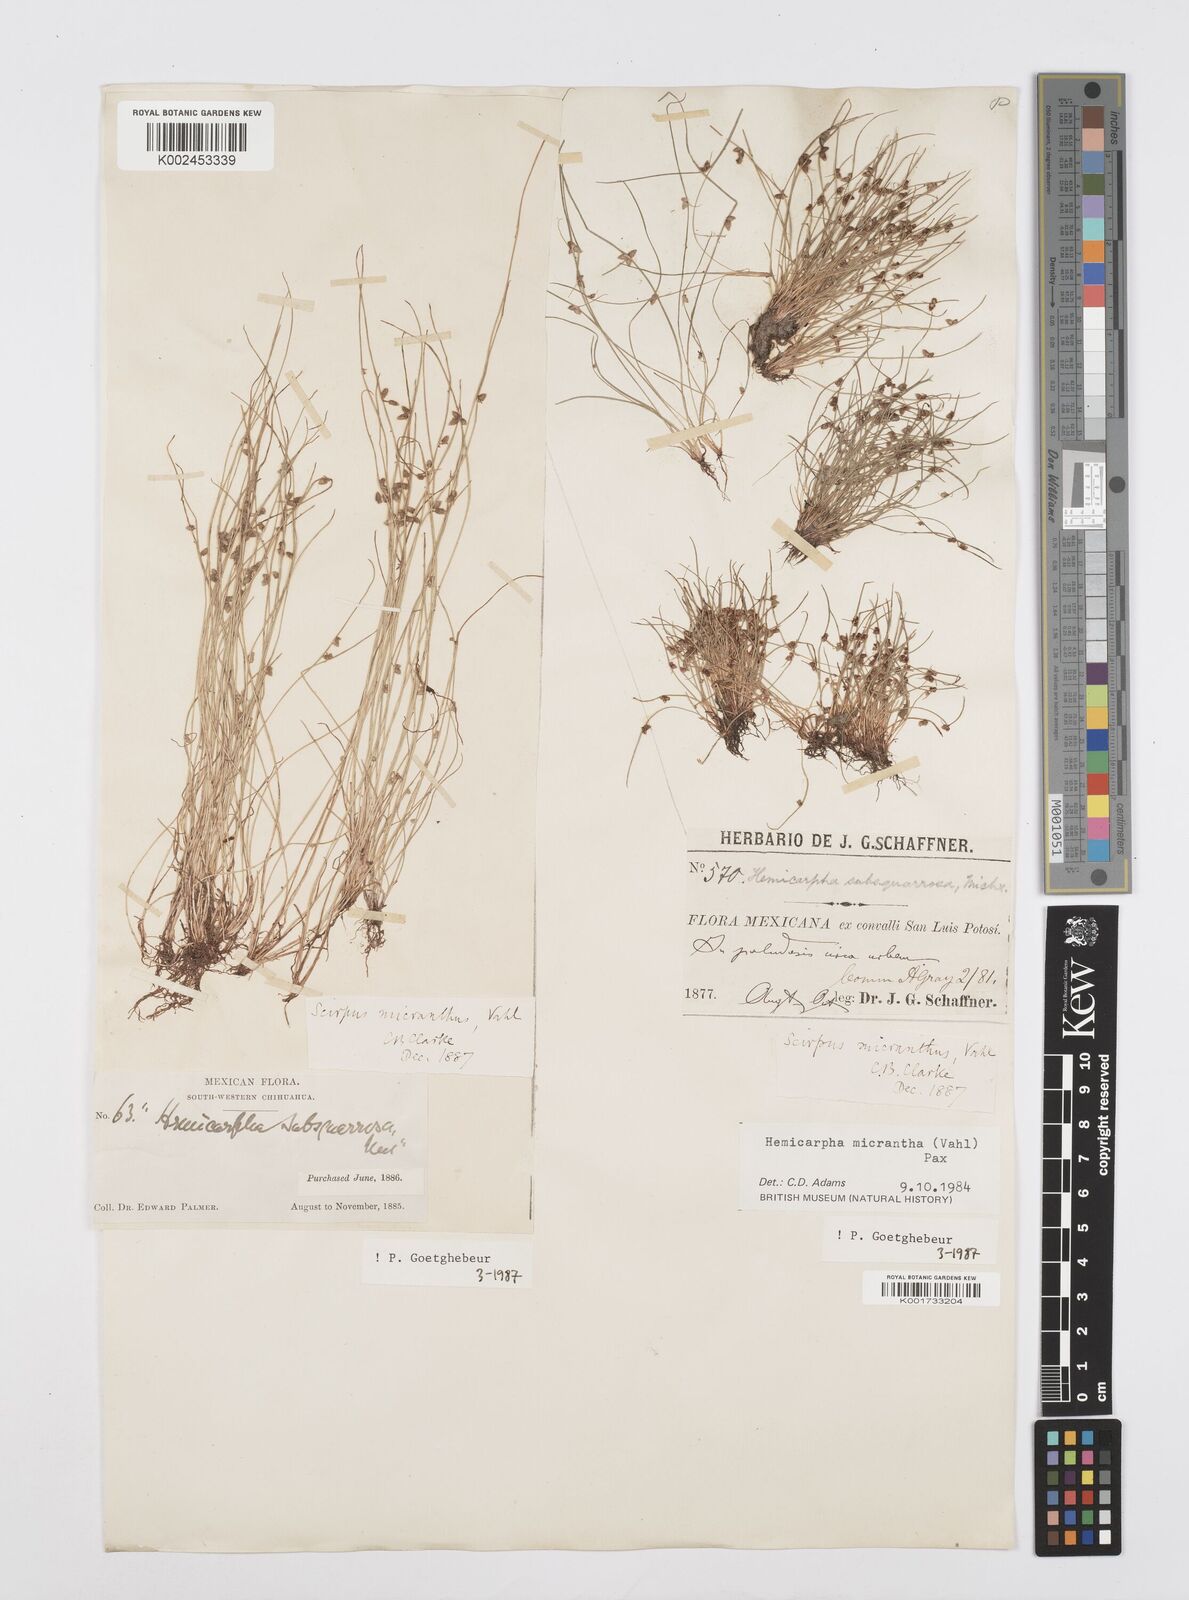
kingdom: Plantae
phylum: Tracheophyta
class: Liliopsida
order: Poales
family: Cyperaceae
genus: Cyperus
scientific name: Cyperus
